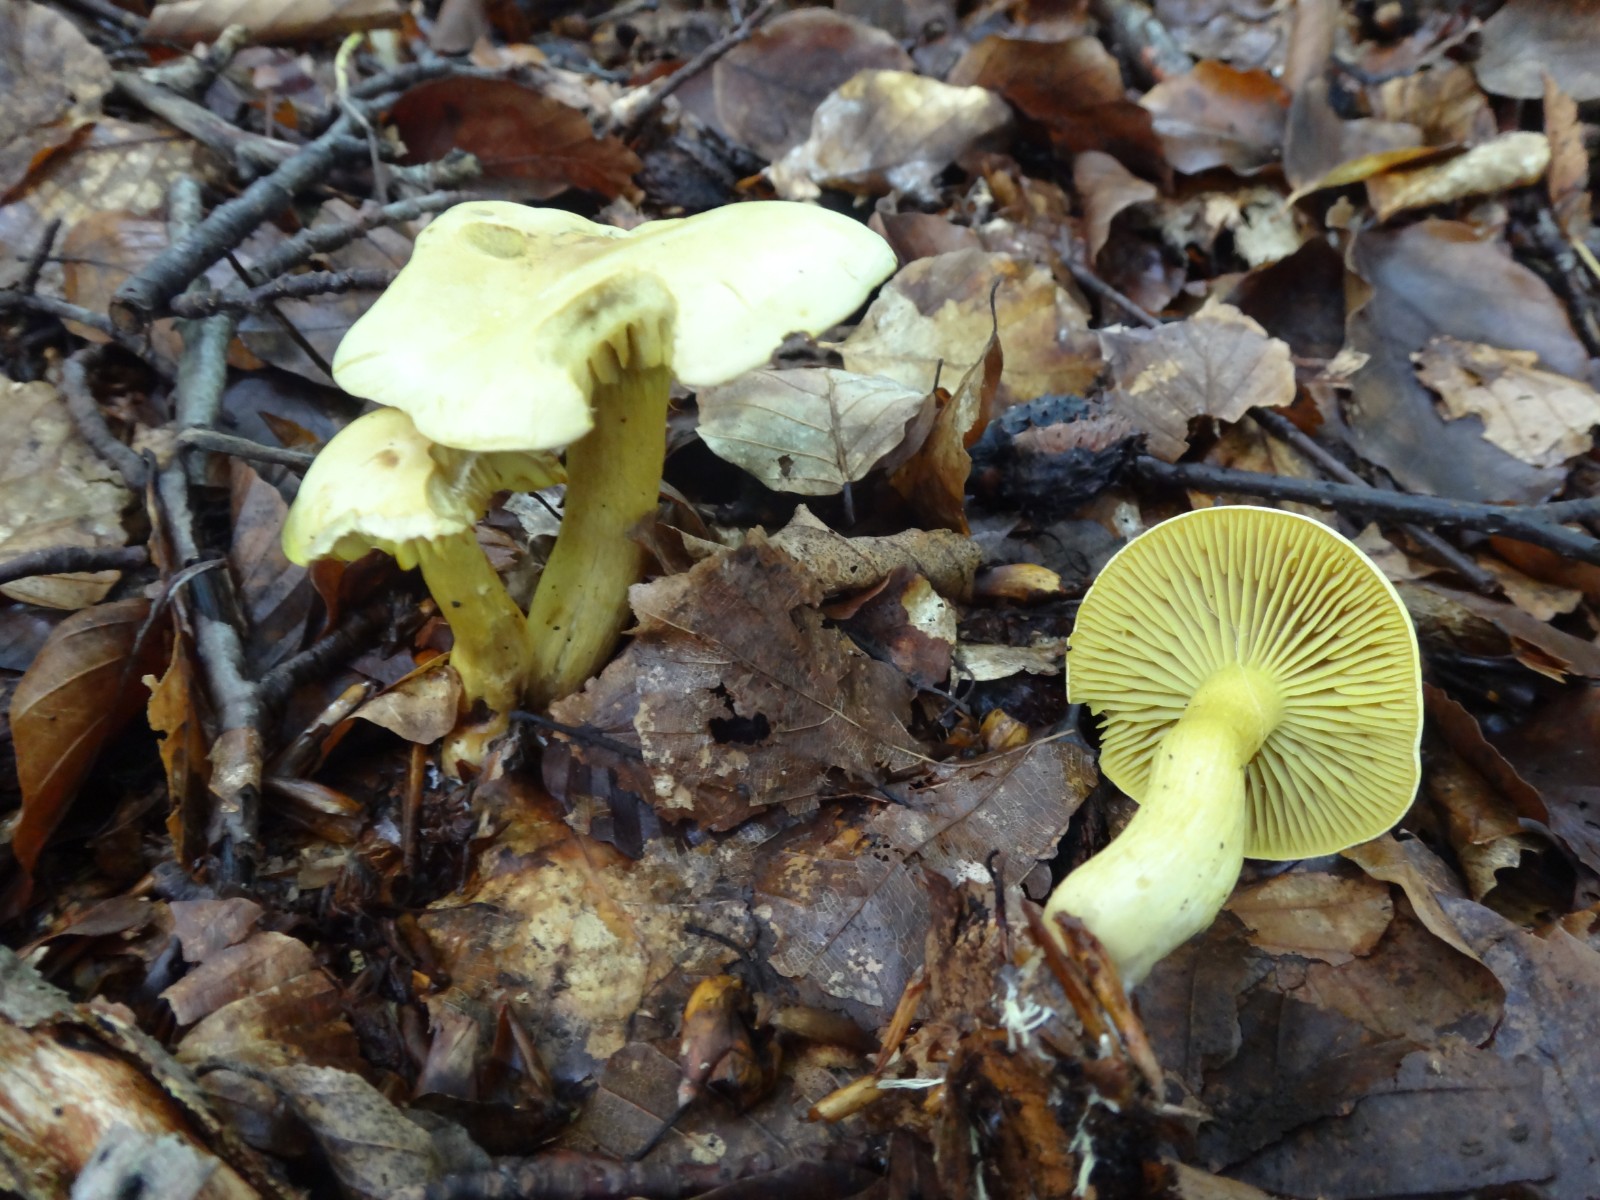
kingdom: Fungi
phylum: Basidiomycota
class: Agaricomycetes
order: Agaricales
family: Tricholomataceae
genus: Tricholoma
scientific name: Tricholoma sulphureum
